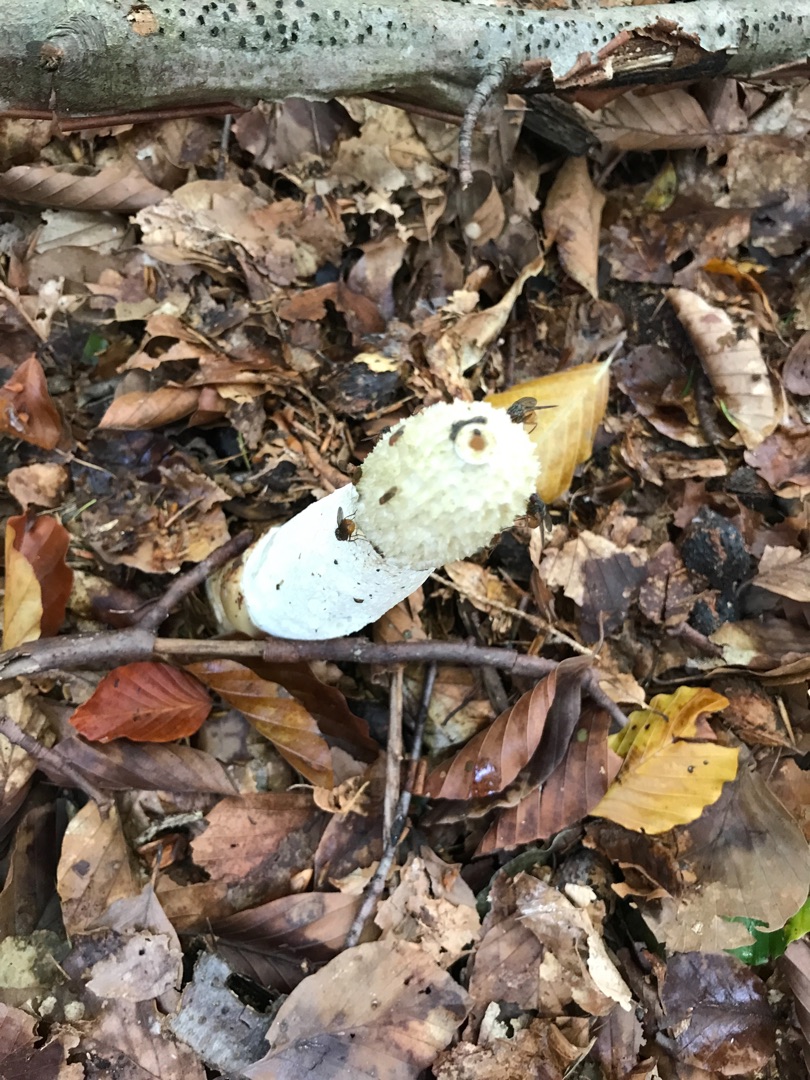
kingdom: Fungi
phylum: Basidiomycota
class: Agaricomycetes
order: Phallales
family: Phallaceae
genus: Phallus
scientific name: Phallus impudicus
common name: Almindelig stinksvamp
